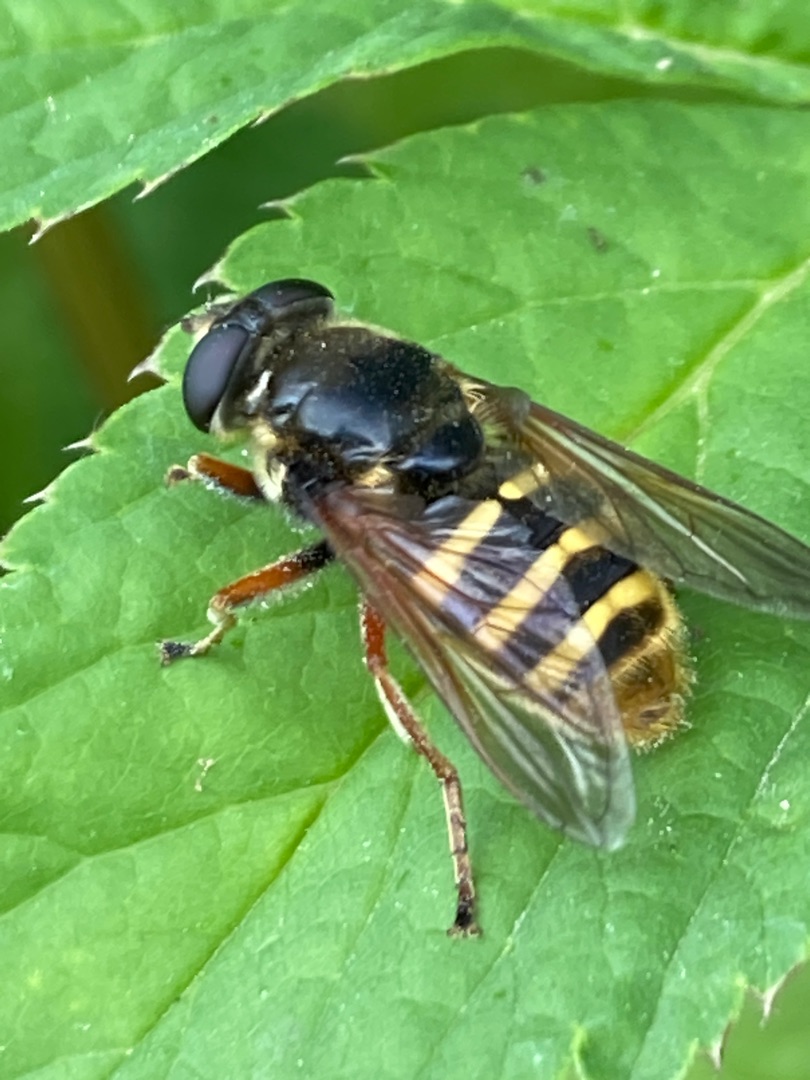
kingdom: Animalia
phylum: Arthropoda
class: Insecta
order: Diptera
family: Syrphidae
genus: Sericomyia
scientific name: Sericomyia silentis
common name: Tørve-silkesvirreflue
